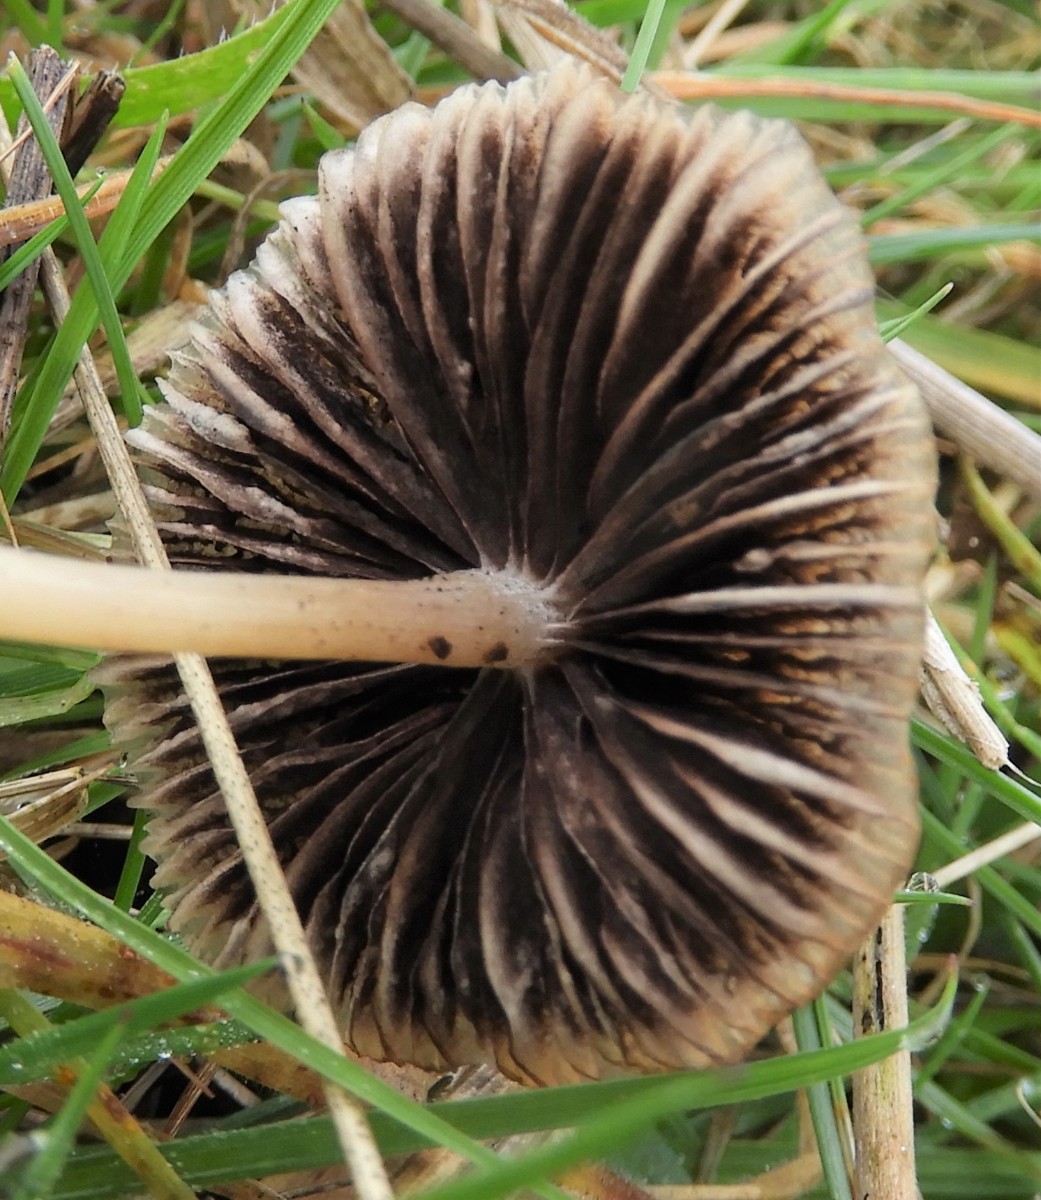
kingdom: Fungi
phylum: Basidiomycota
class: Agaricomycetes
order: Agaricales
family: Psathyrellaceae
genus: Psathyrella
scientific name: Psathyrella
